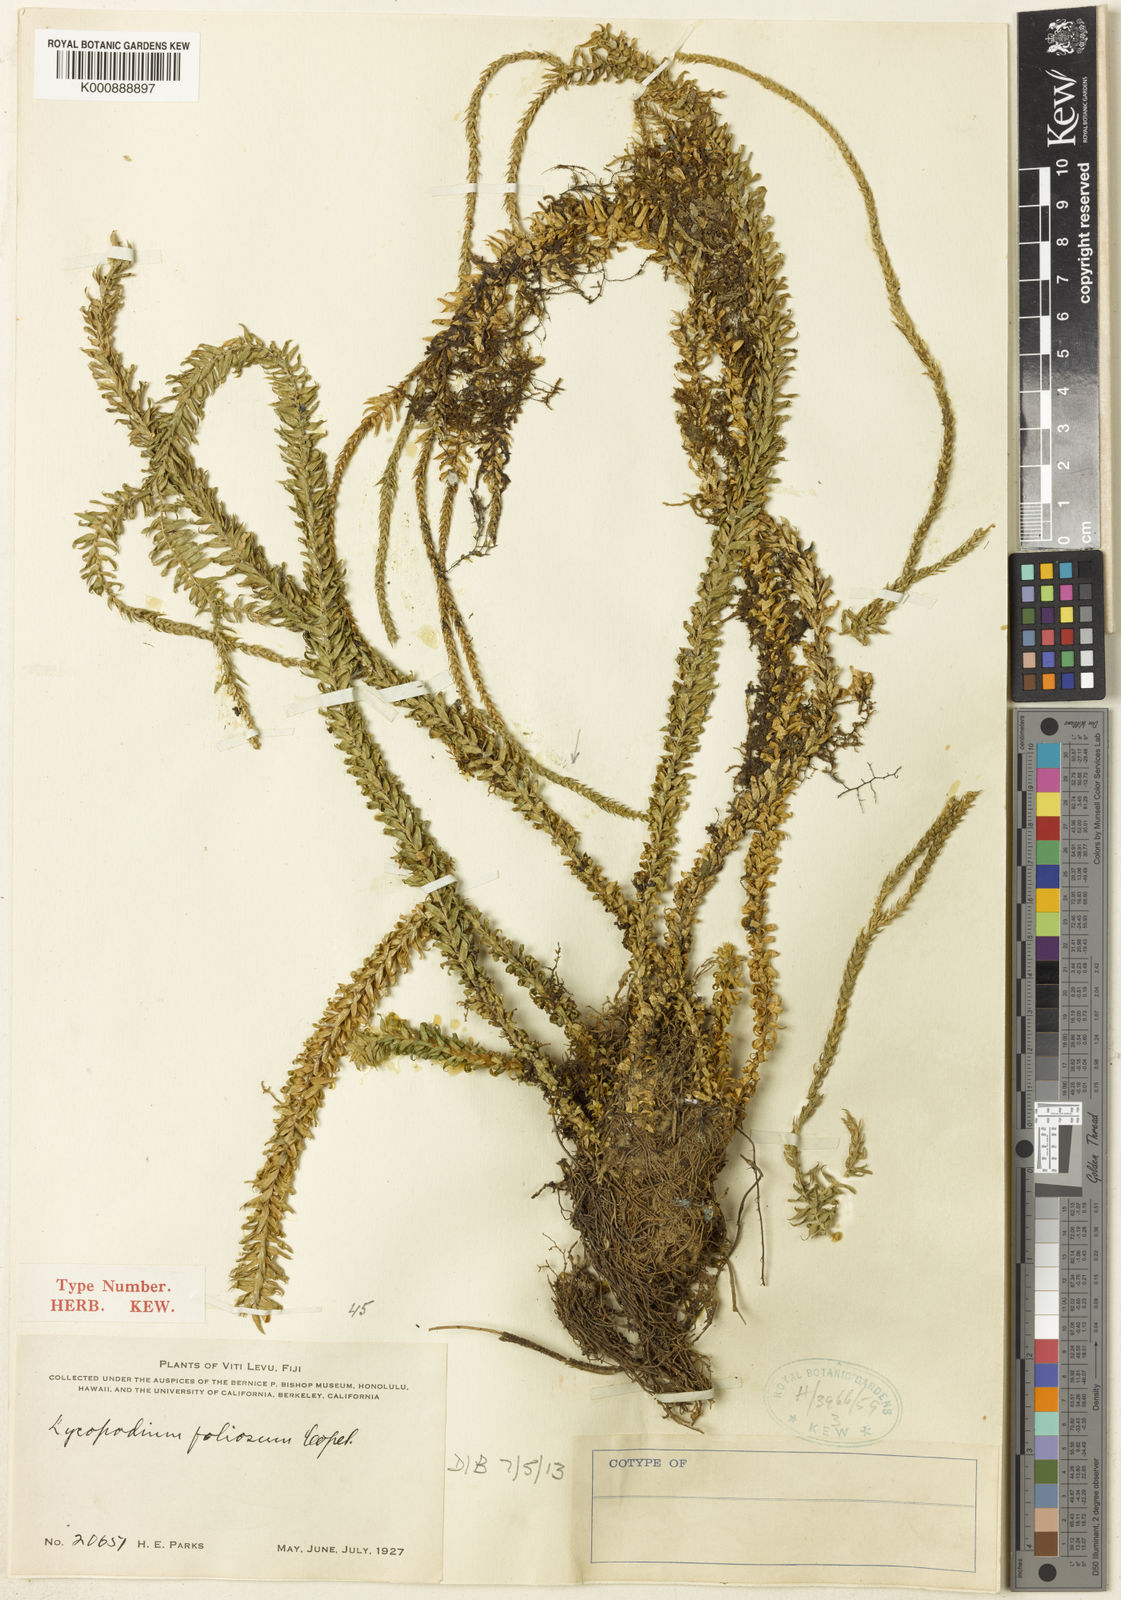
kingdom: Plantae
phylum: Tracheophyta
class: Lycopodiopsida
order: Lycopodiales
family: Lycopodiaceae
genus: Phlegmariurus
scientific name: Phlegmariurus foliosus
